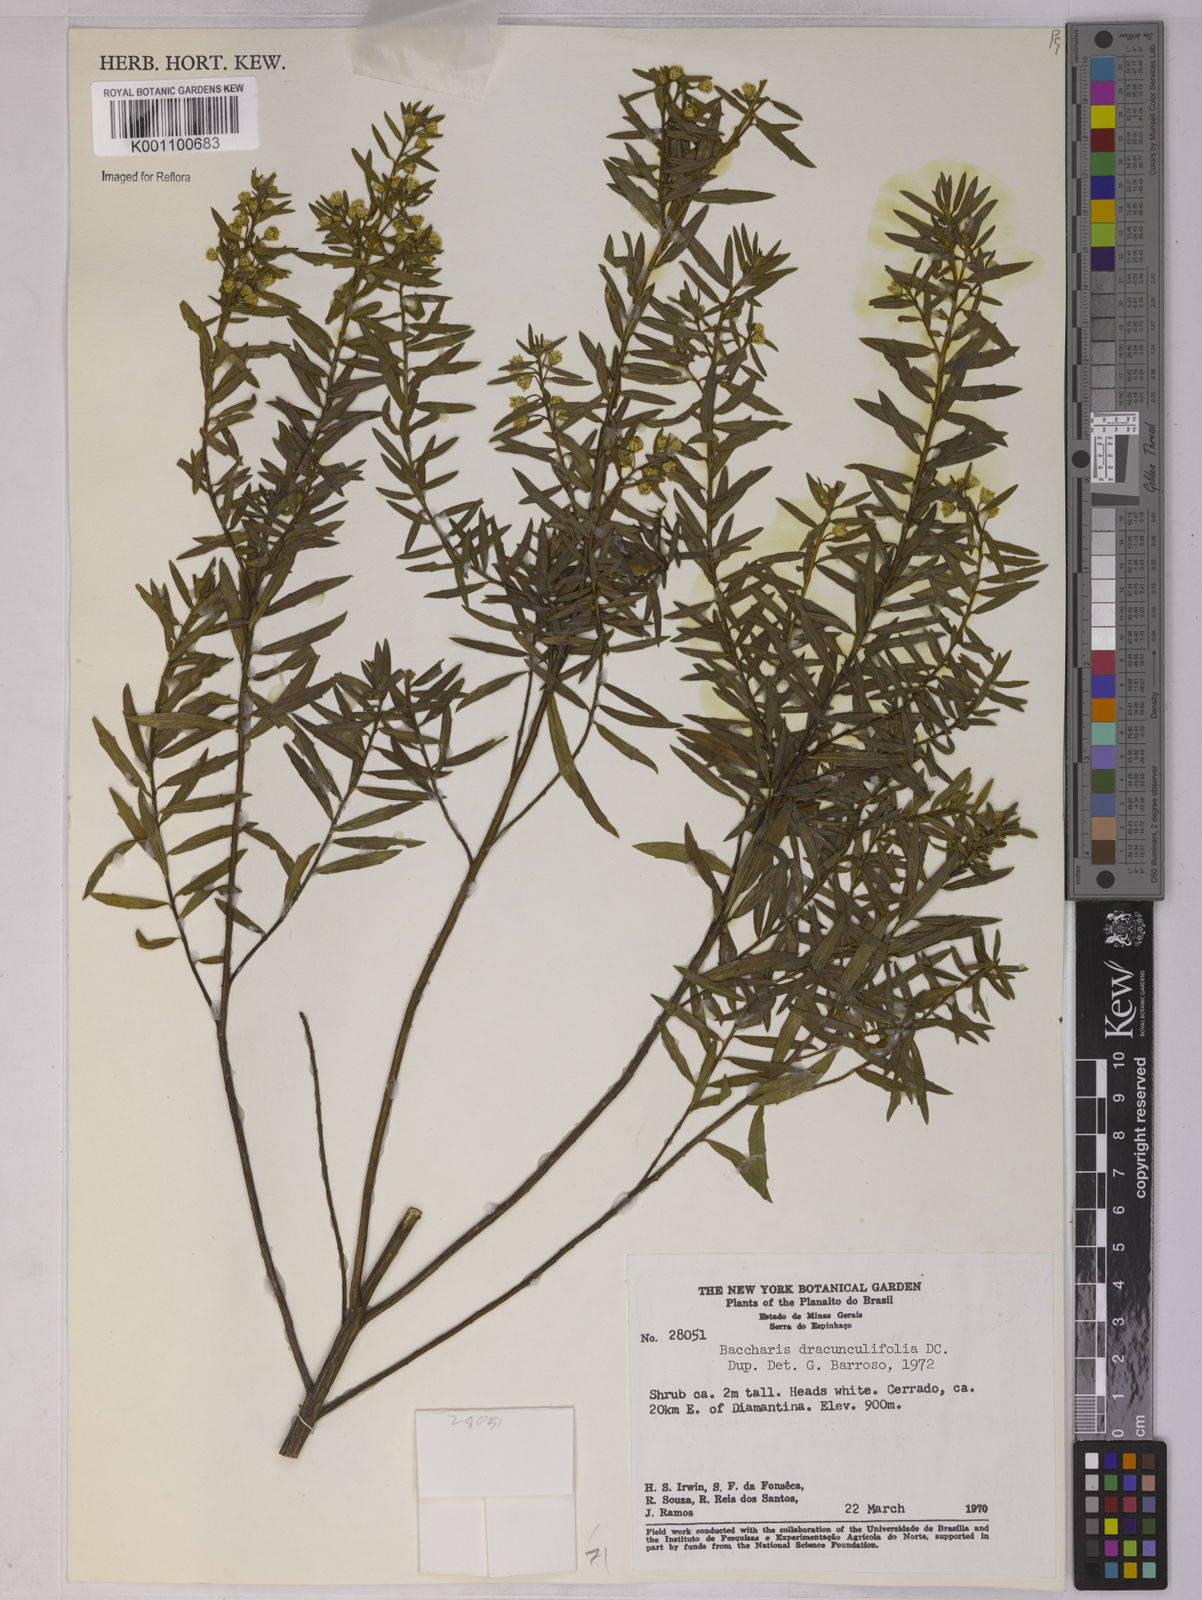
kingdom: Plantae
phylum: Tracheophyta
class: Magnoliopsida
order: Asterales
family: Asteraceae
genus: Baccharis
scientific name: Baccharis dracunculifolia
